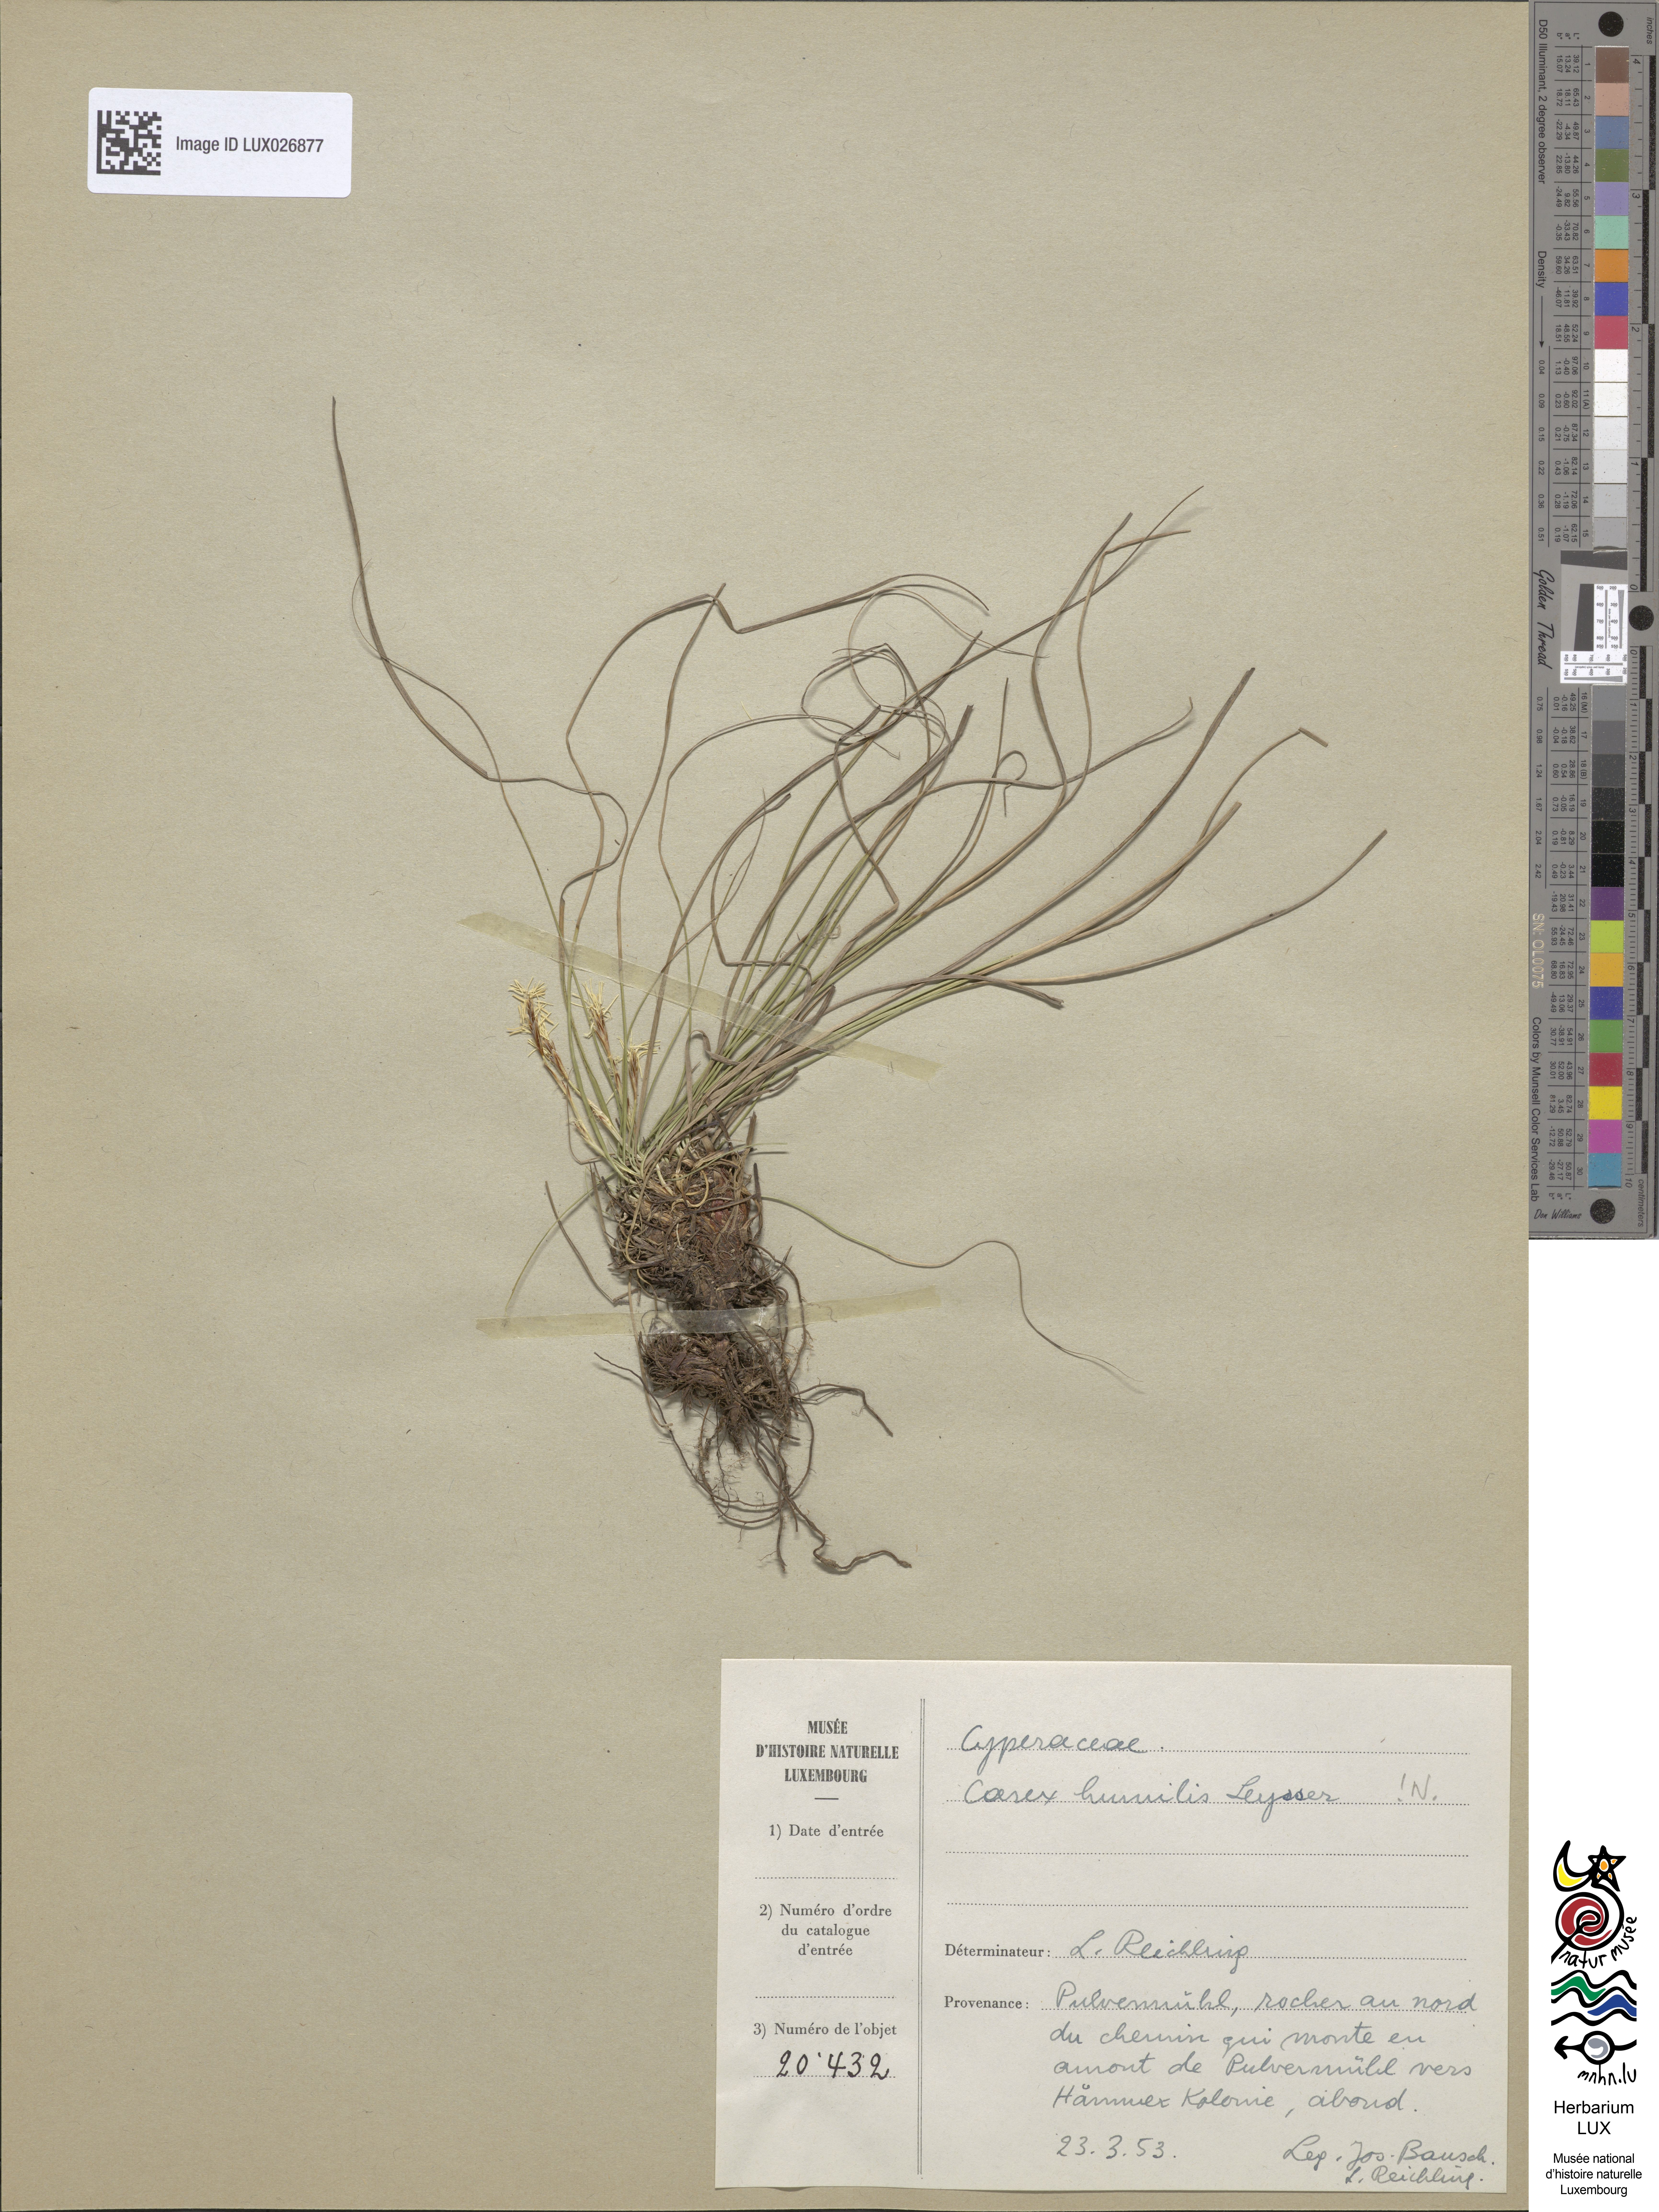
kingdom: Plantae
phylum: Tracheophyta
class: Liliopsida
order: Poales
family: Cyperaceae
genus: Carex
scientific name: Carex humilis
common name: Dwarf sedge
